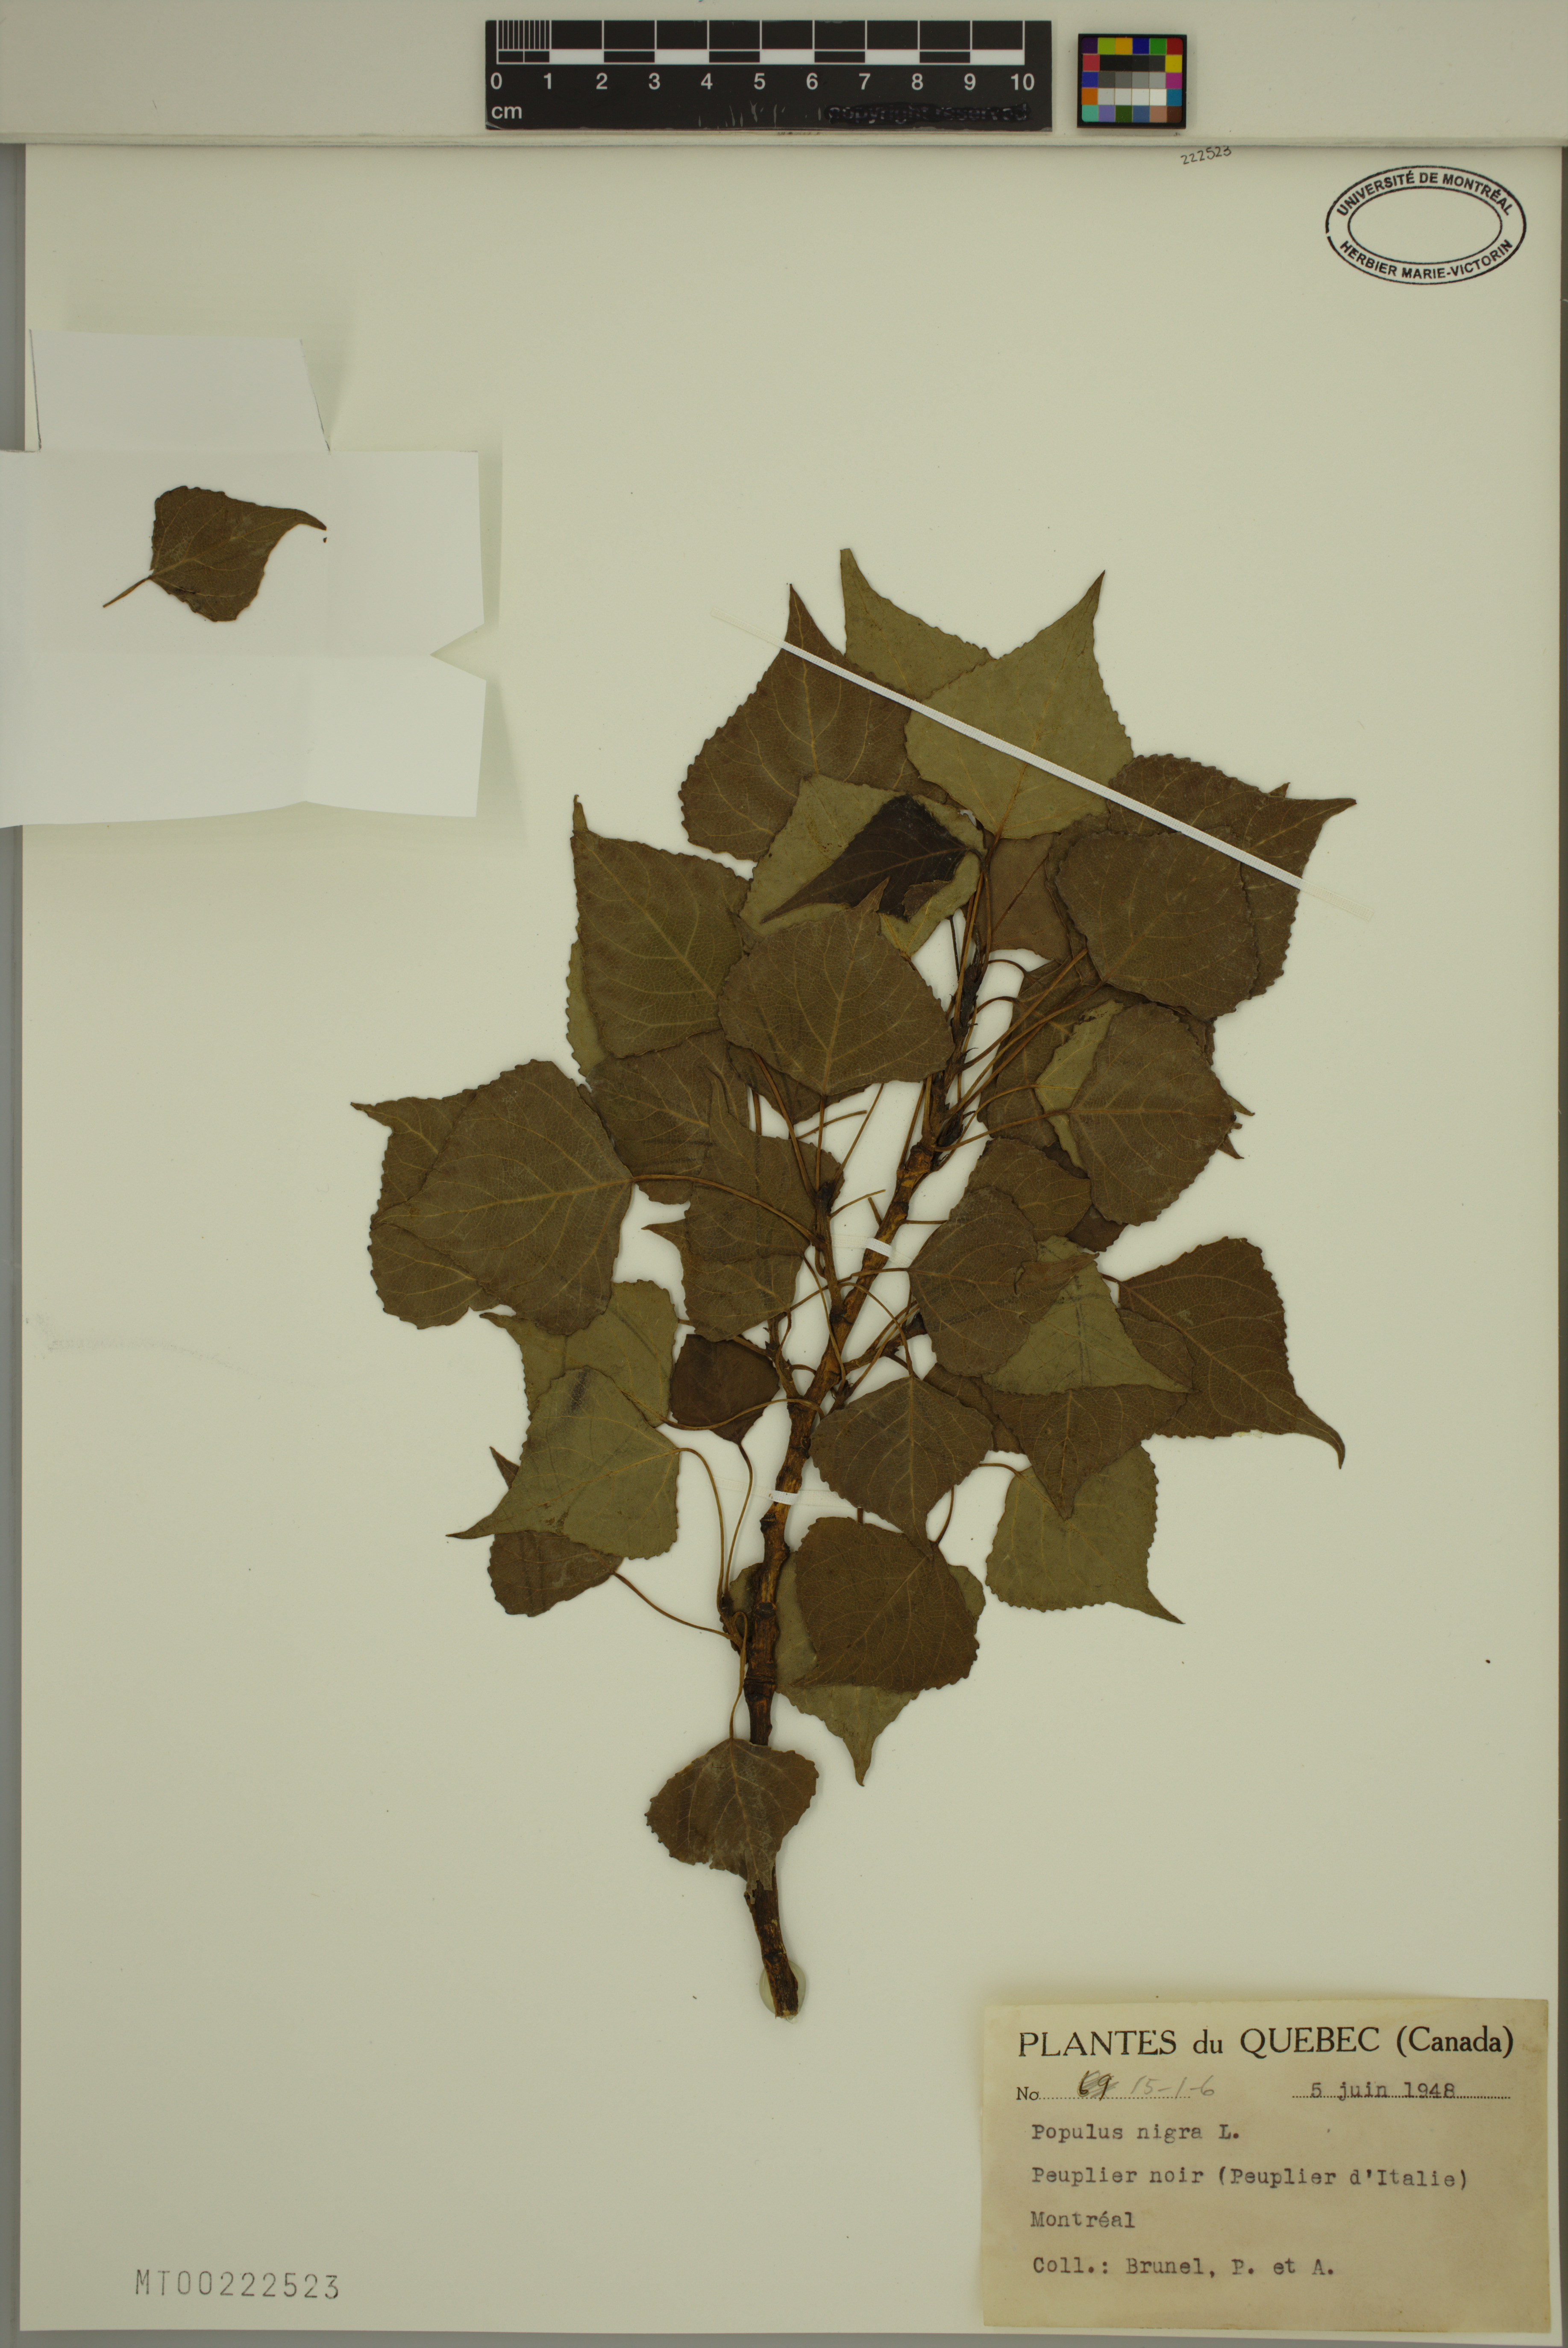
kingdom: Plantae
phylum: Tracheophyta
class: Magnoliopsida
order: Malpighiales
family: Salicaceae
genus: Populus
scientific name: Populus nigra
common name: Black poplar
